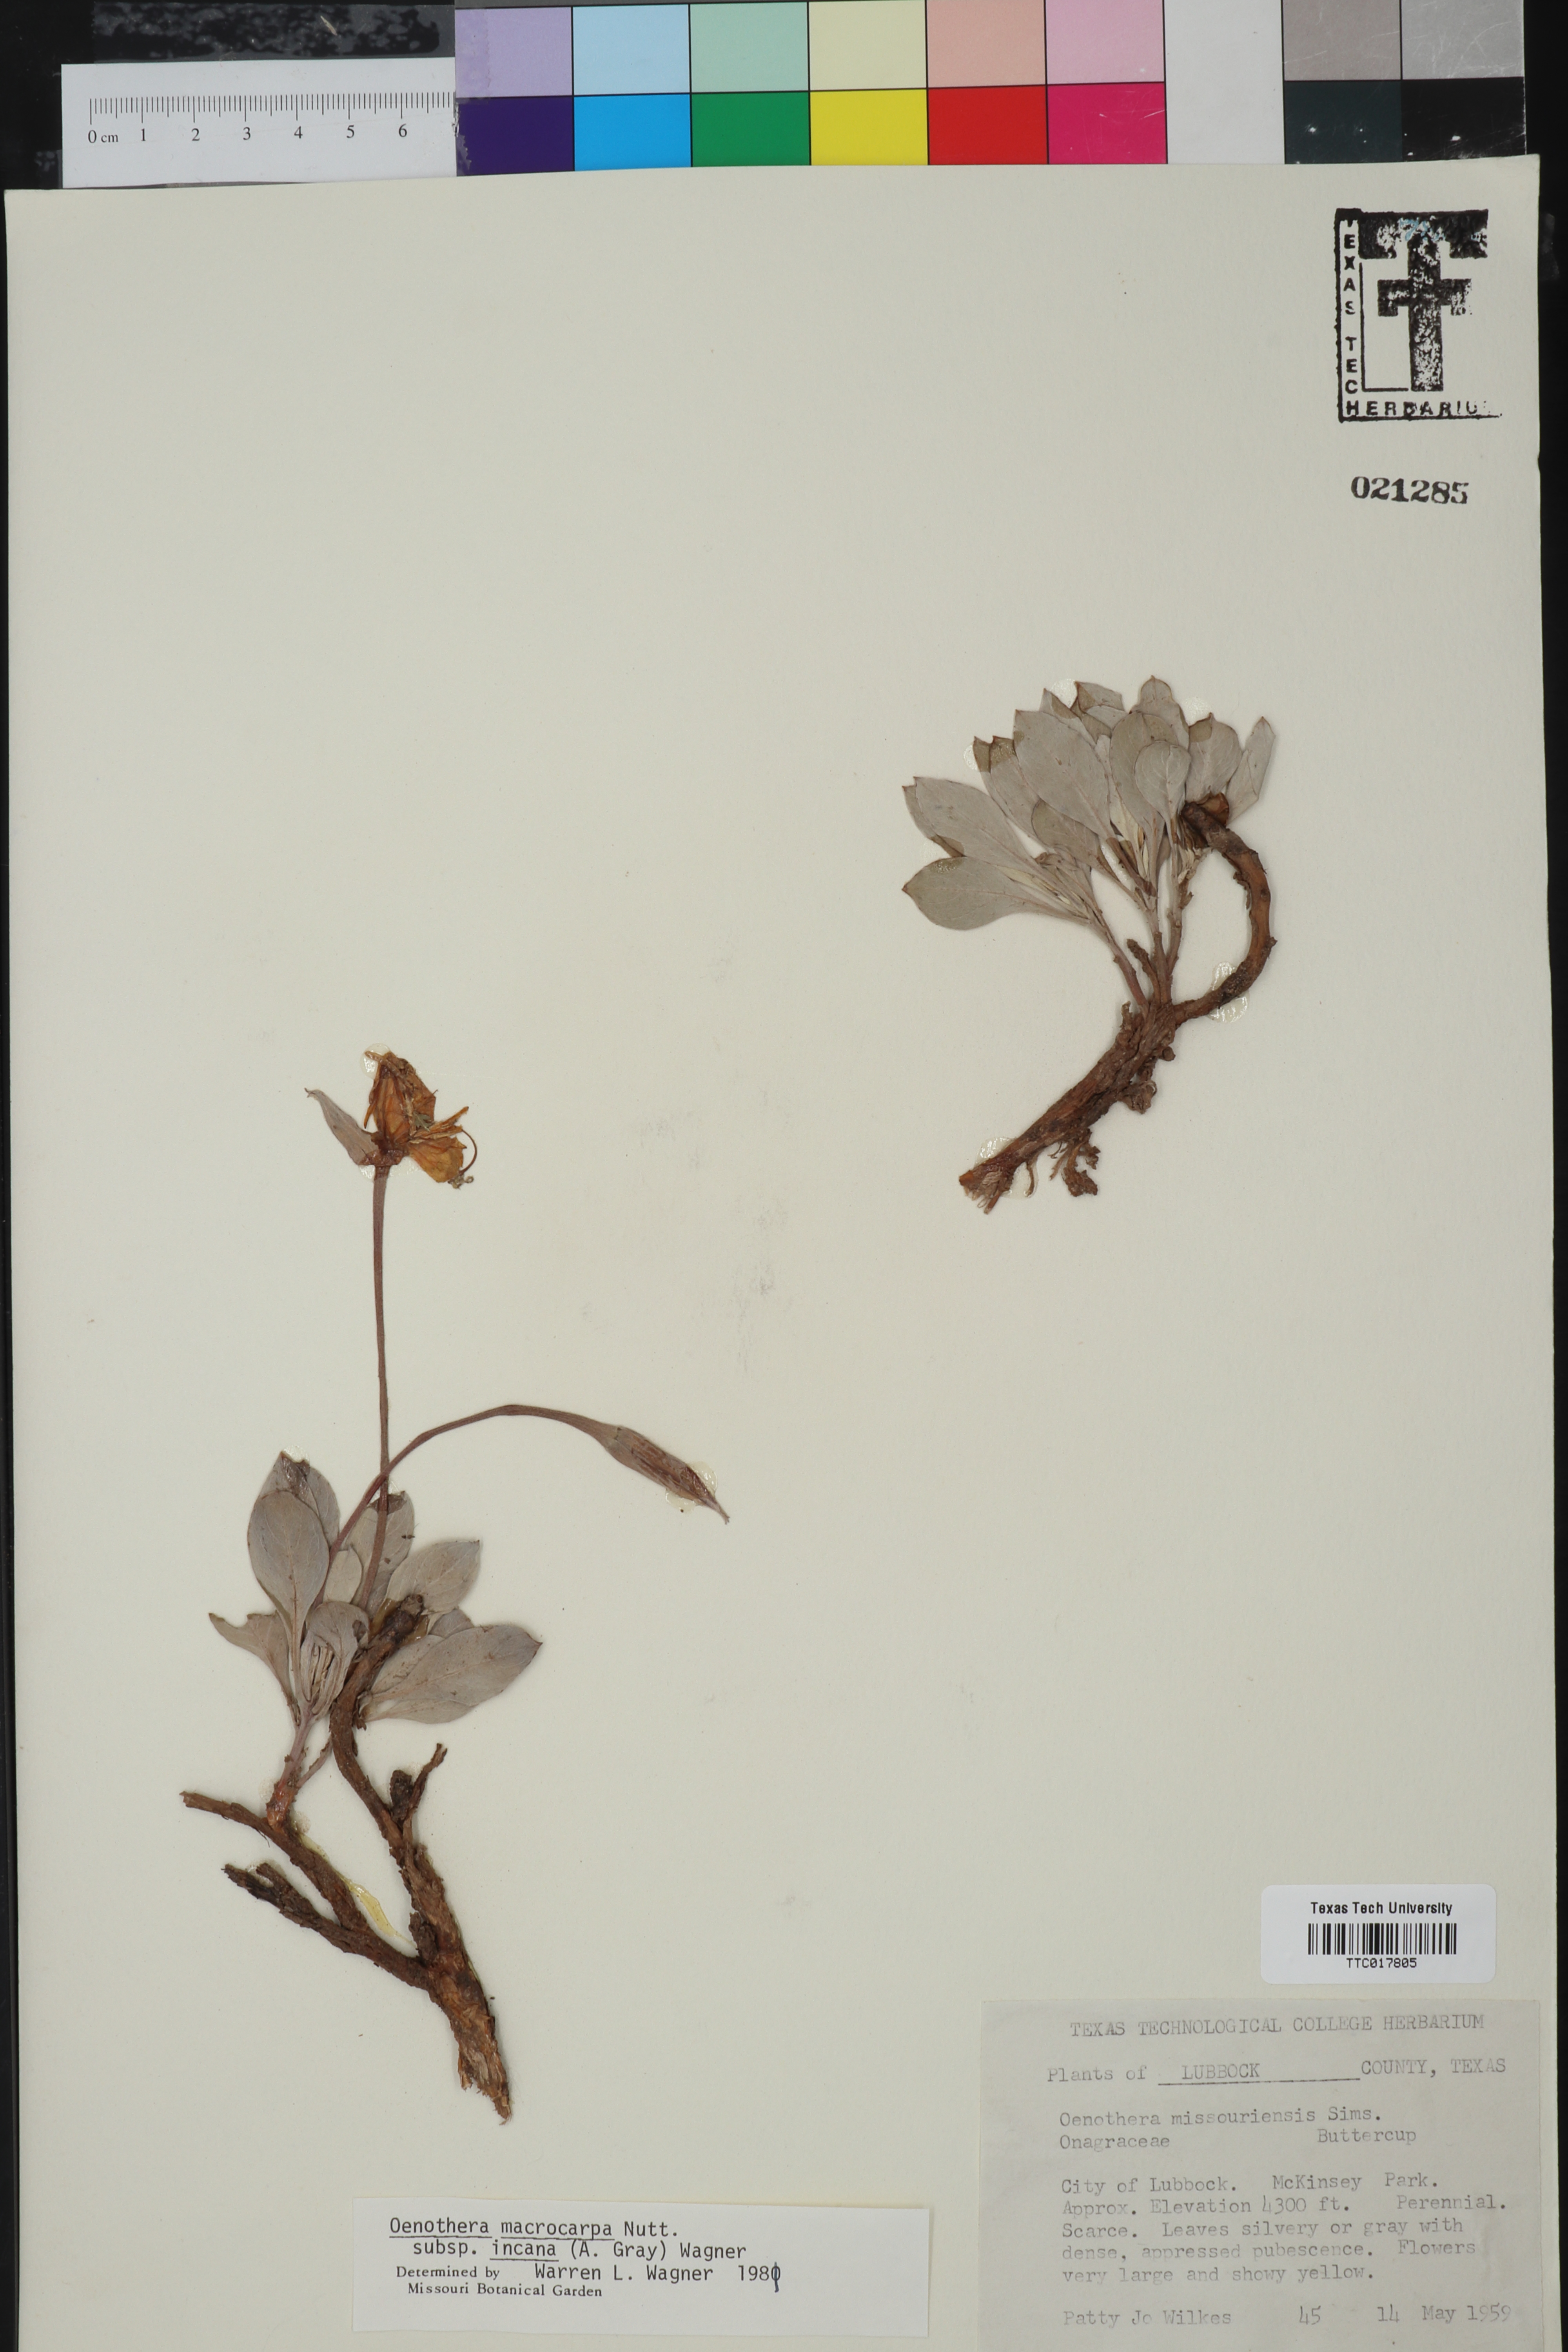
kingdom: Plantae
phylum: Tracheophyta
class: Magnoliopsida
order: Myrtales
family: Onagraceae
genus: Oenothera
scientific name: Oenothera macrocarpa
